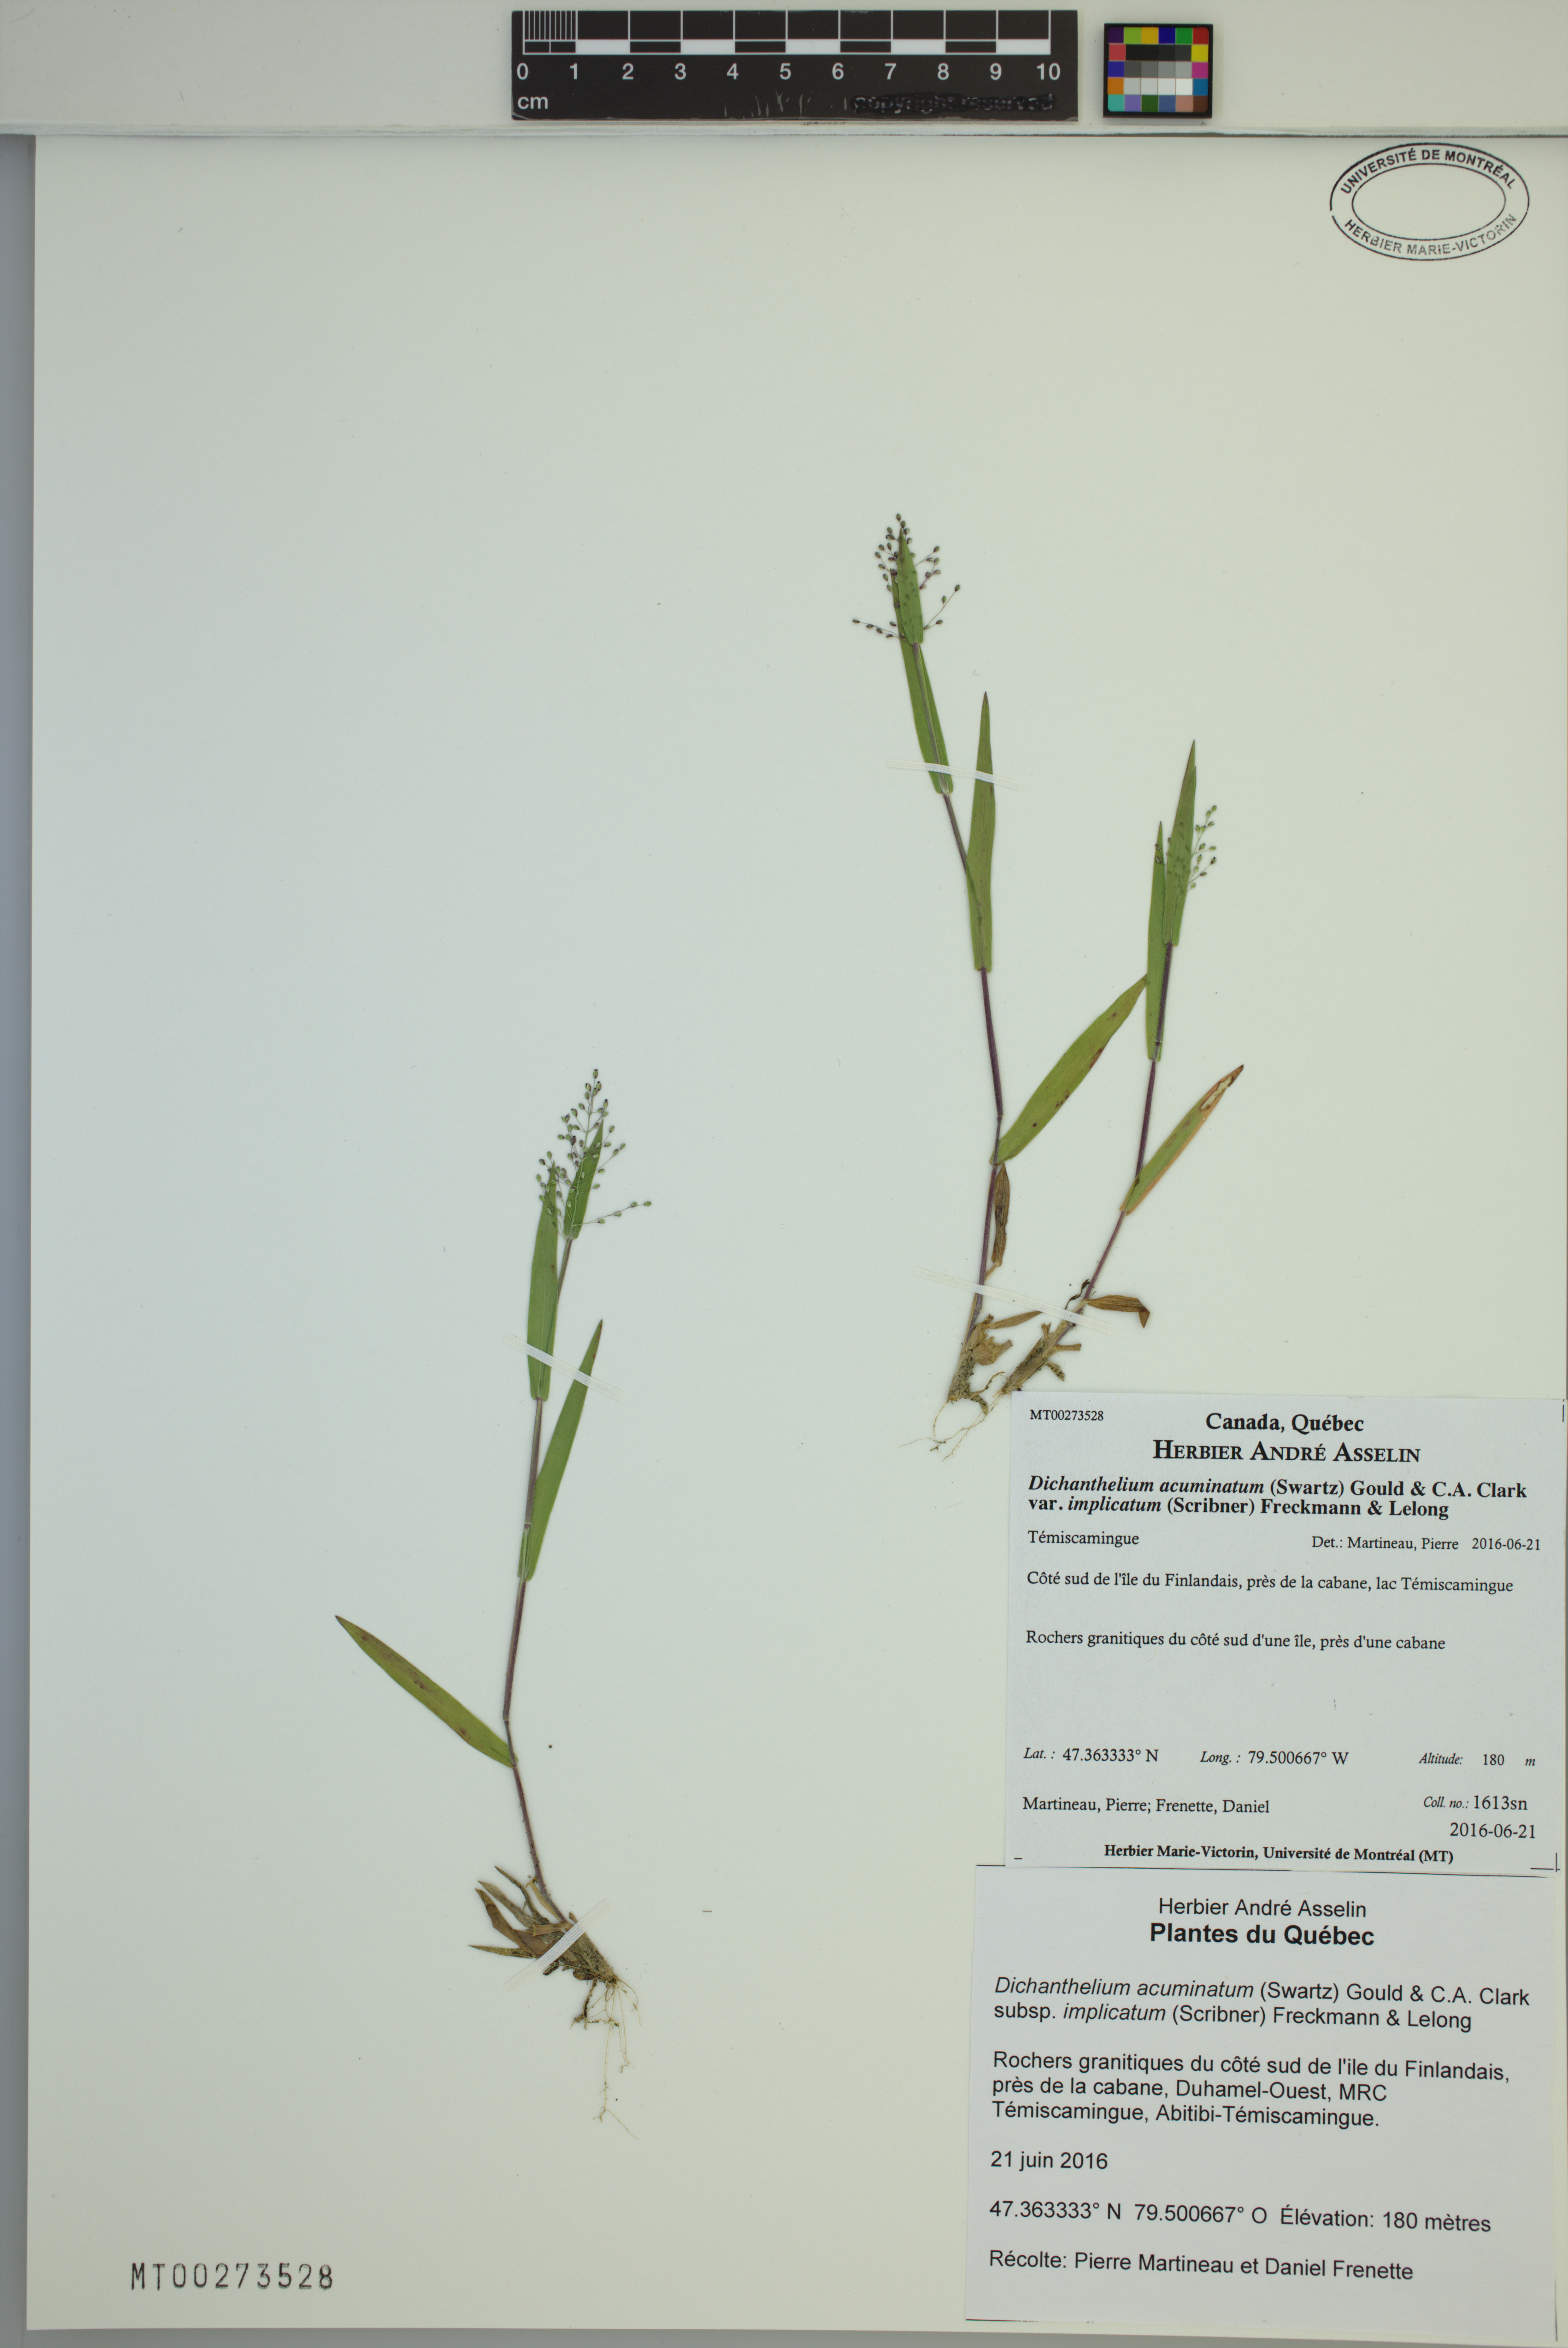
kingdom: Plantae
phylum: Tracheophyta
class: Liliopsida
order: Poales
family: Poaceae
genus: Dichanthelium
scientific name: Dichanthelium implicatum
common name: Slender-stemmed panicgrass
